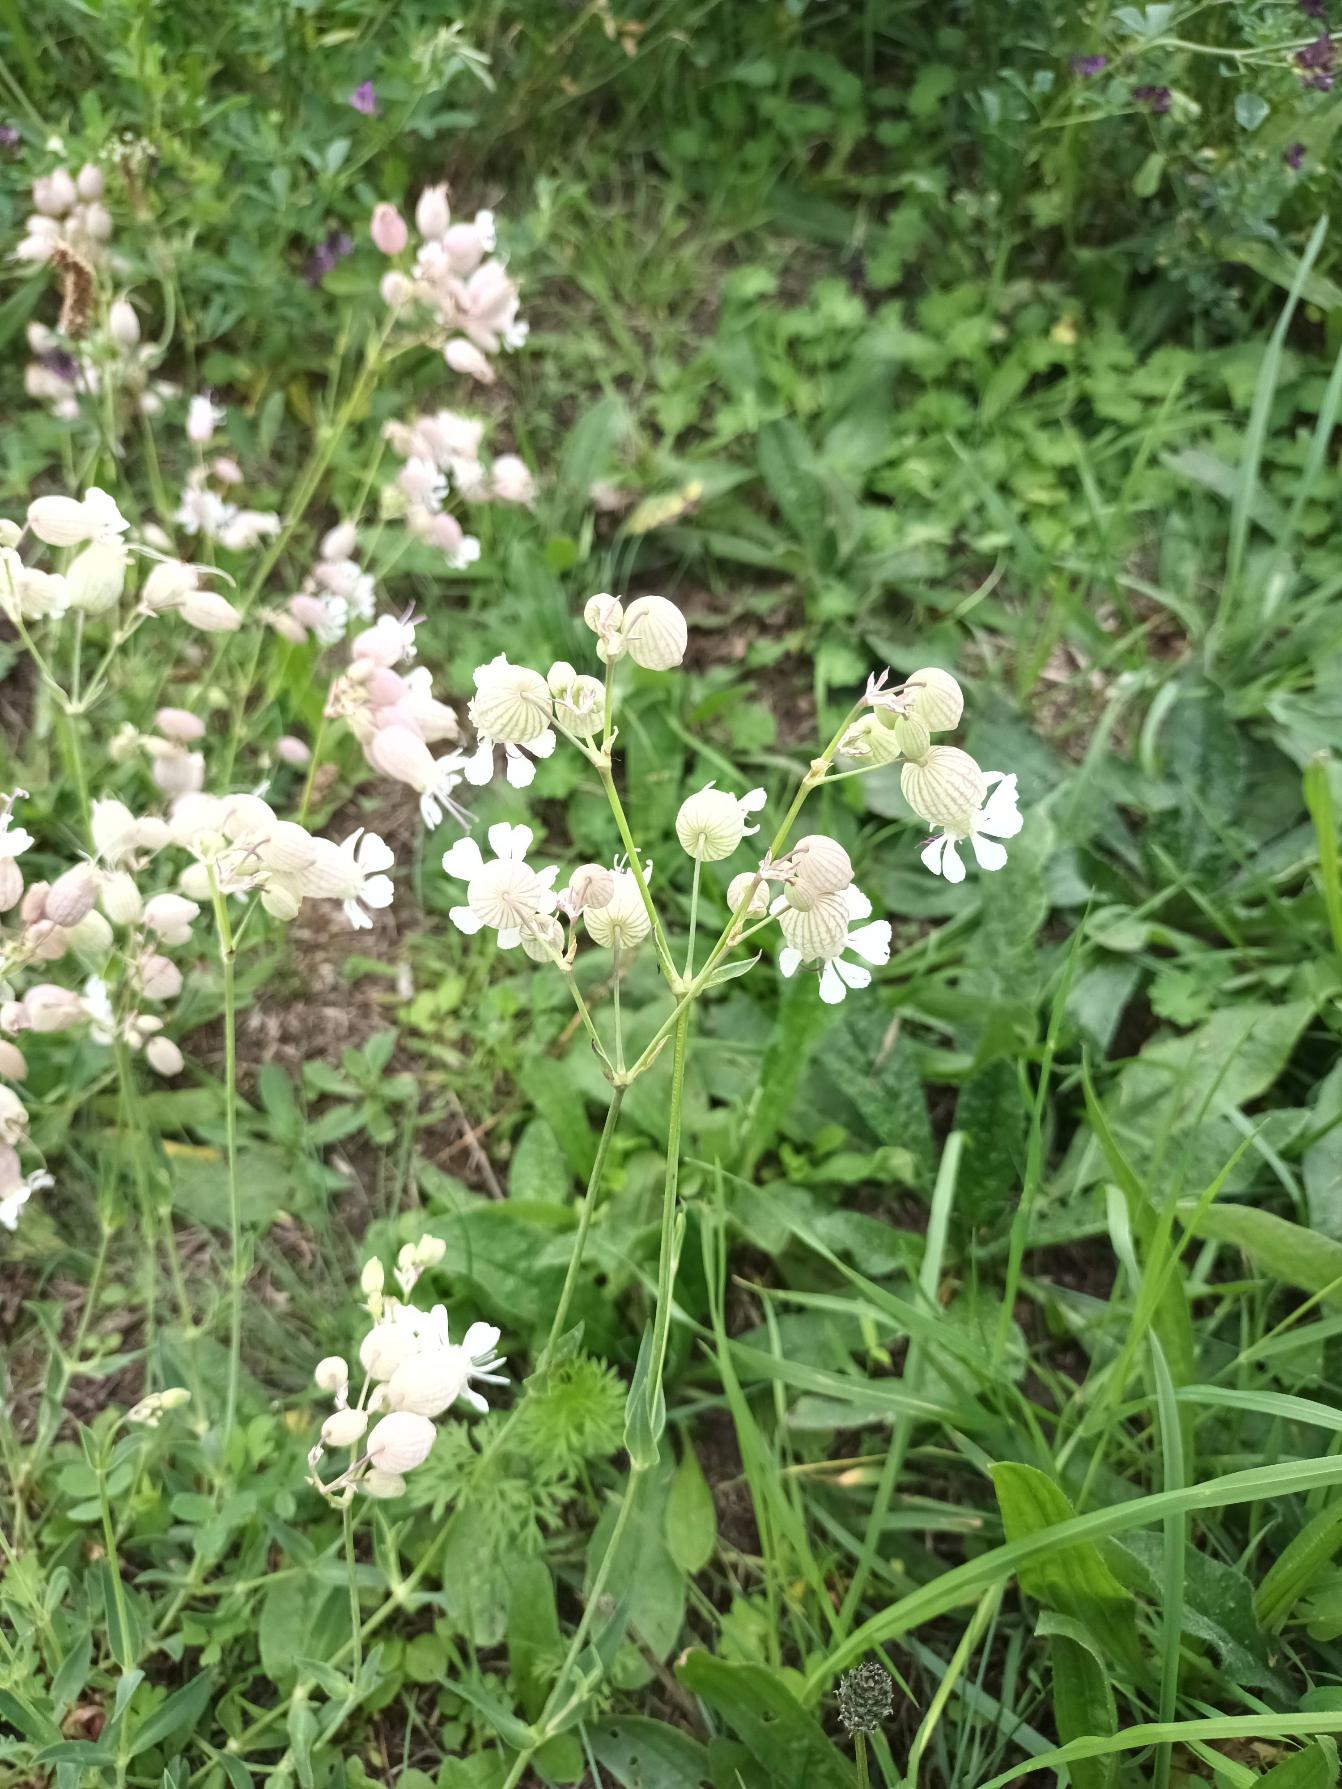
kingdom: Plantae
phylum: Tracheophyta
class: Magnoliopsida
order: Caryophyllales
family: Caryophyllaceae
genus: Silene
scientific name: Silene vulgaris
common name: Blæresmælde
